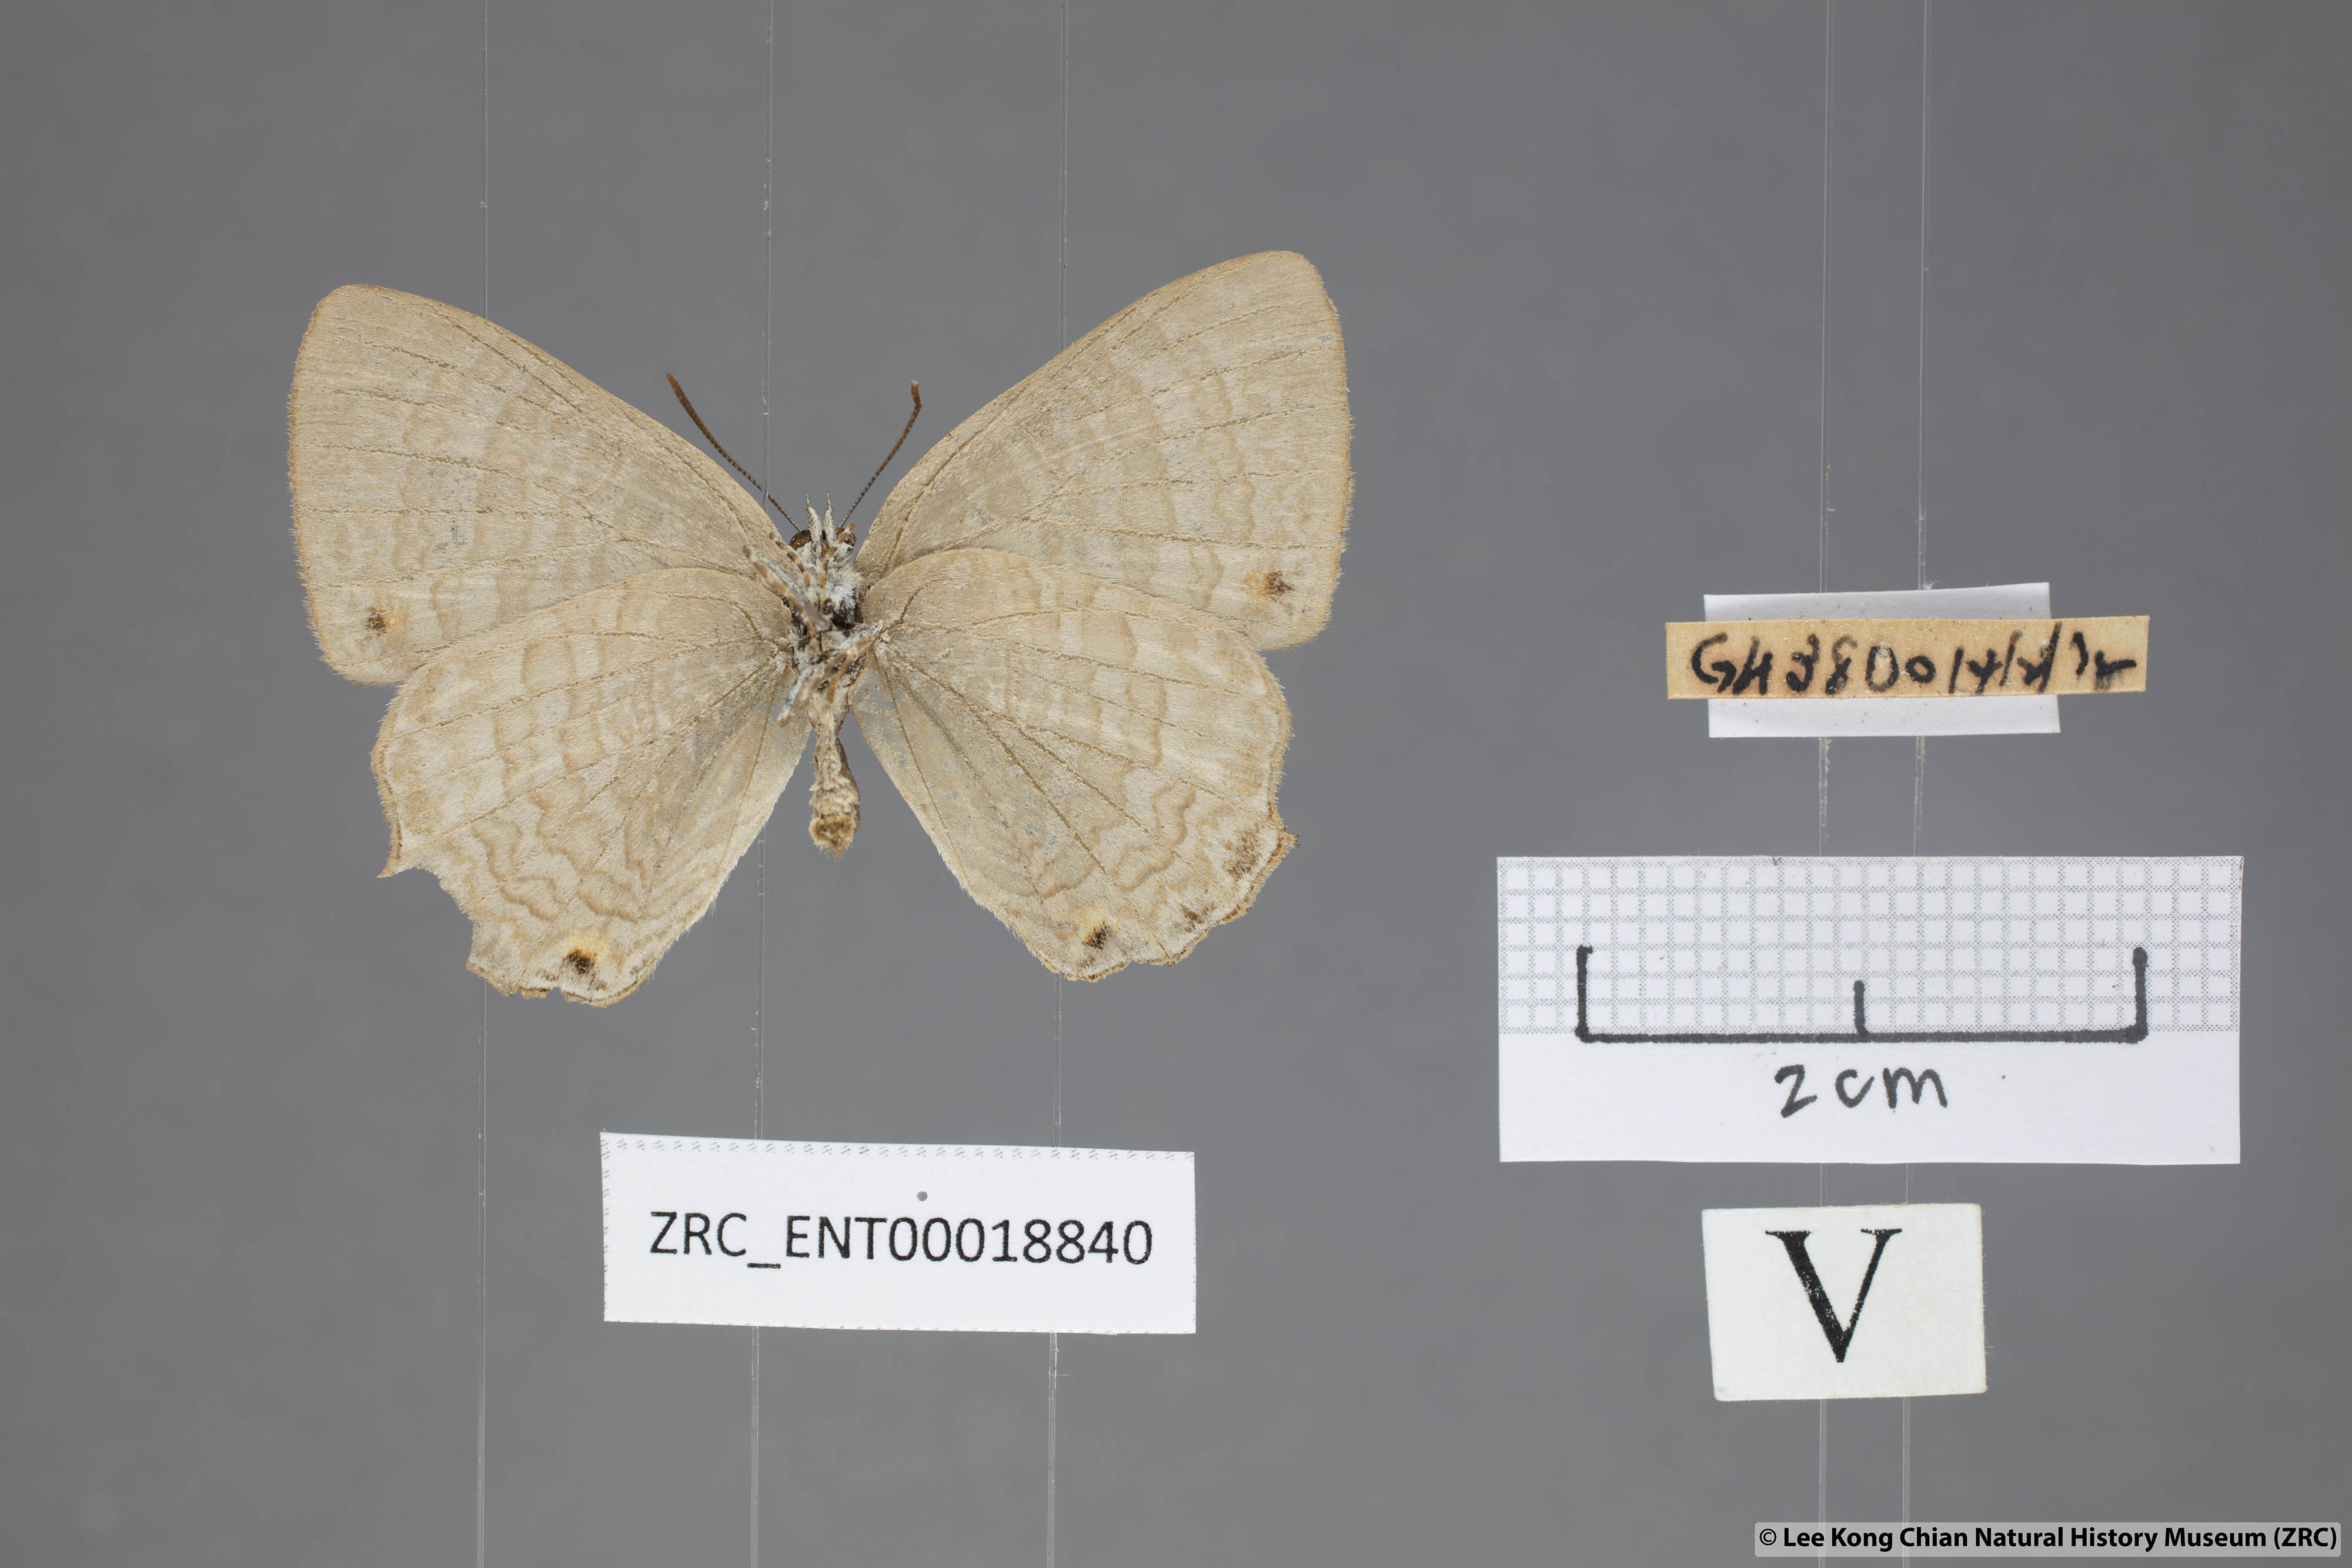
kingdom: Animalia
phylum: Arthropoda
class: Insecta
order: Lepidoptera
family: Lycaenidae
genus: Poritia
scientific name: Poritia promula
